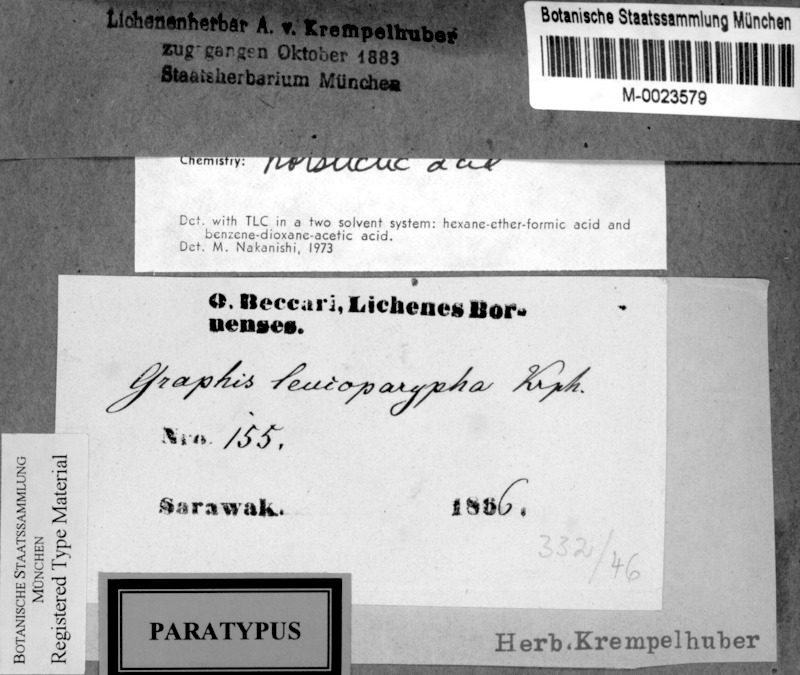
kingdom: Fungi
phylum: Ascomycota
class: Lecanoromycetes
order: Ostropales
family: Graphidaceae
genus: Allographa
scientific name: Allographa marginata
